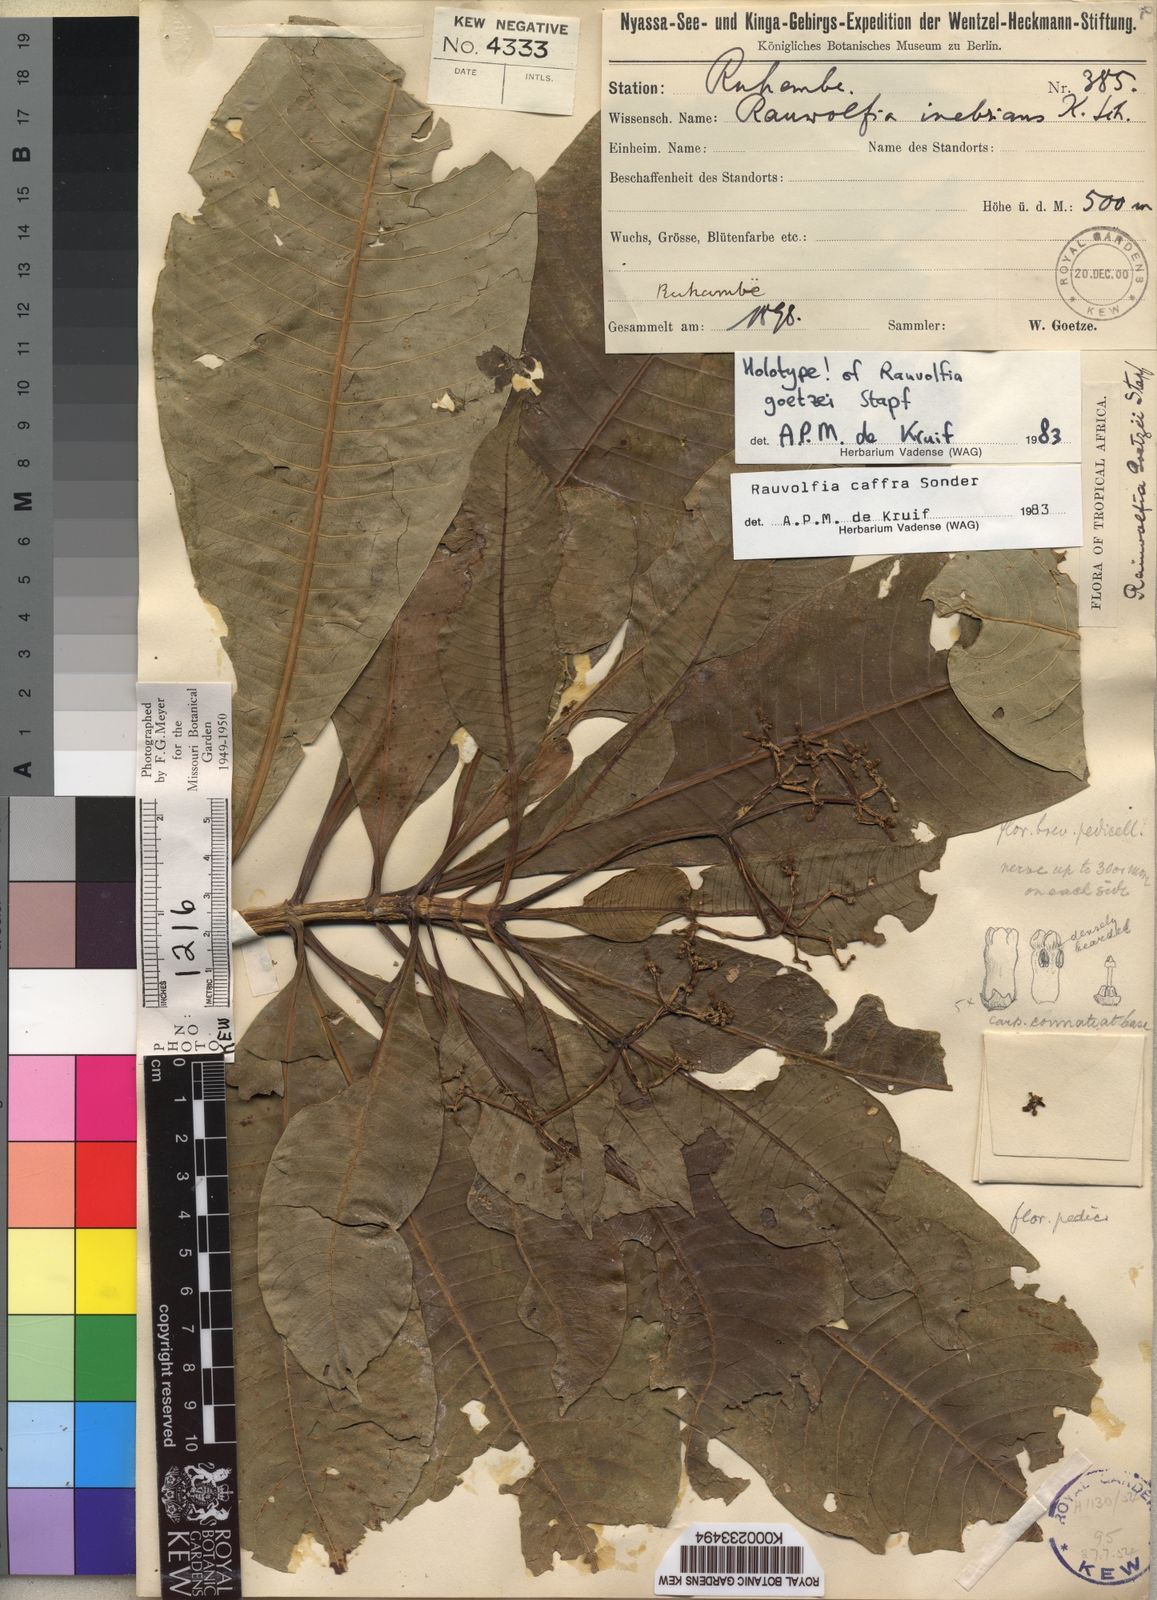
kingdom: Plantae
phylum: Tracheophyta
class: Magnoliopsida
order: Gentianales
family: Apocynaceae
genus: Rauvolfia
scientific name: Rauvolfia caffra
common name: Quininetree
